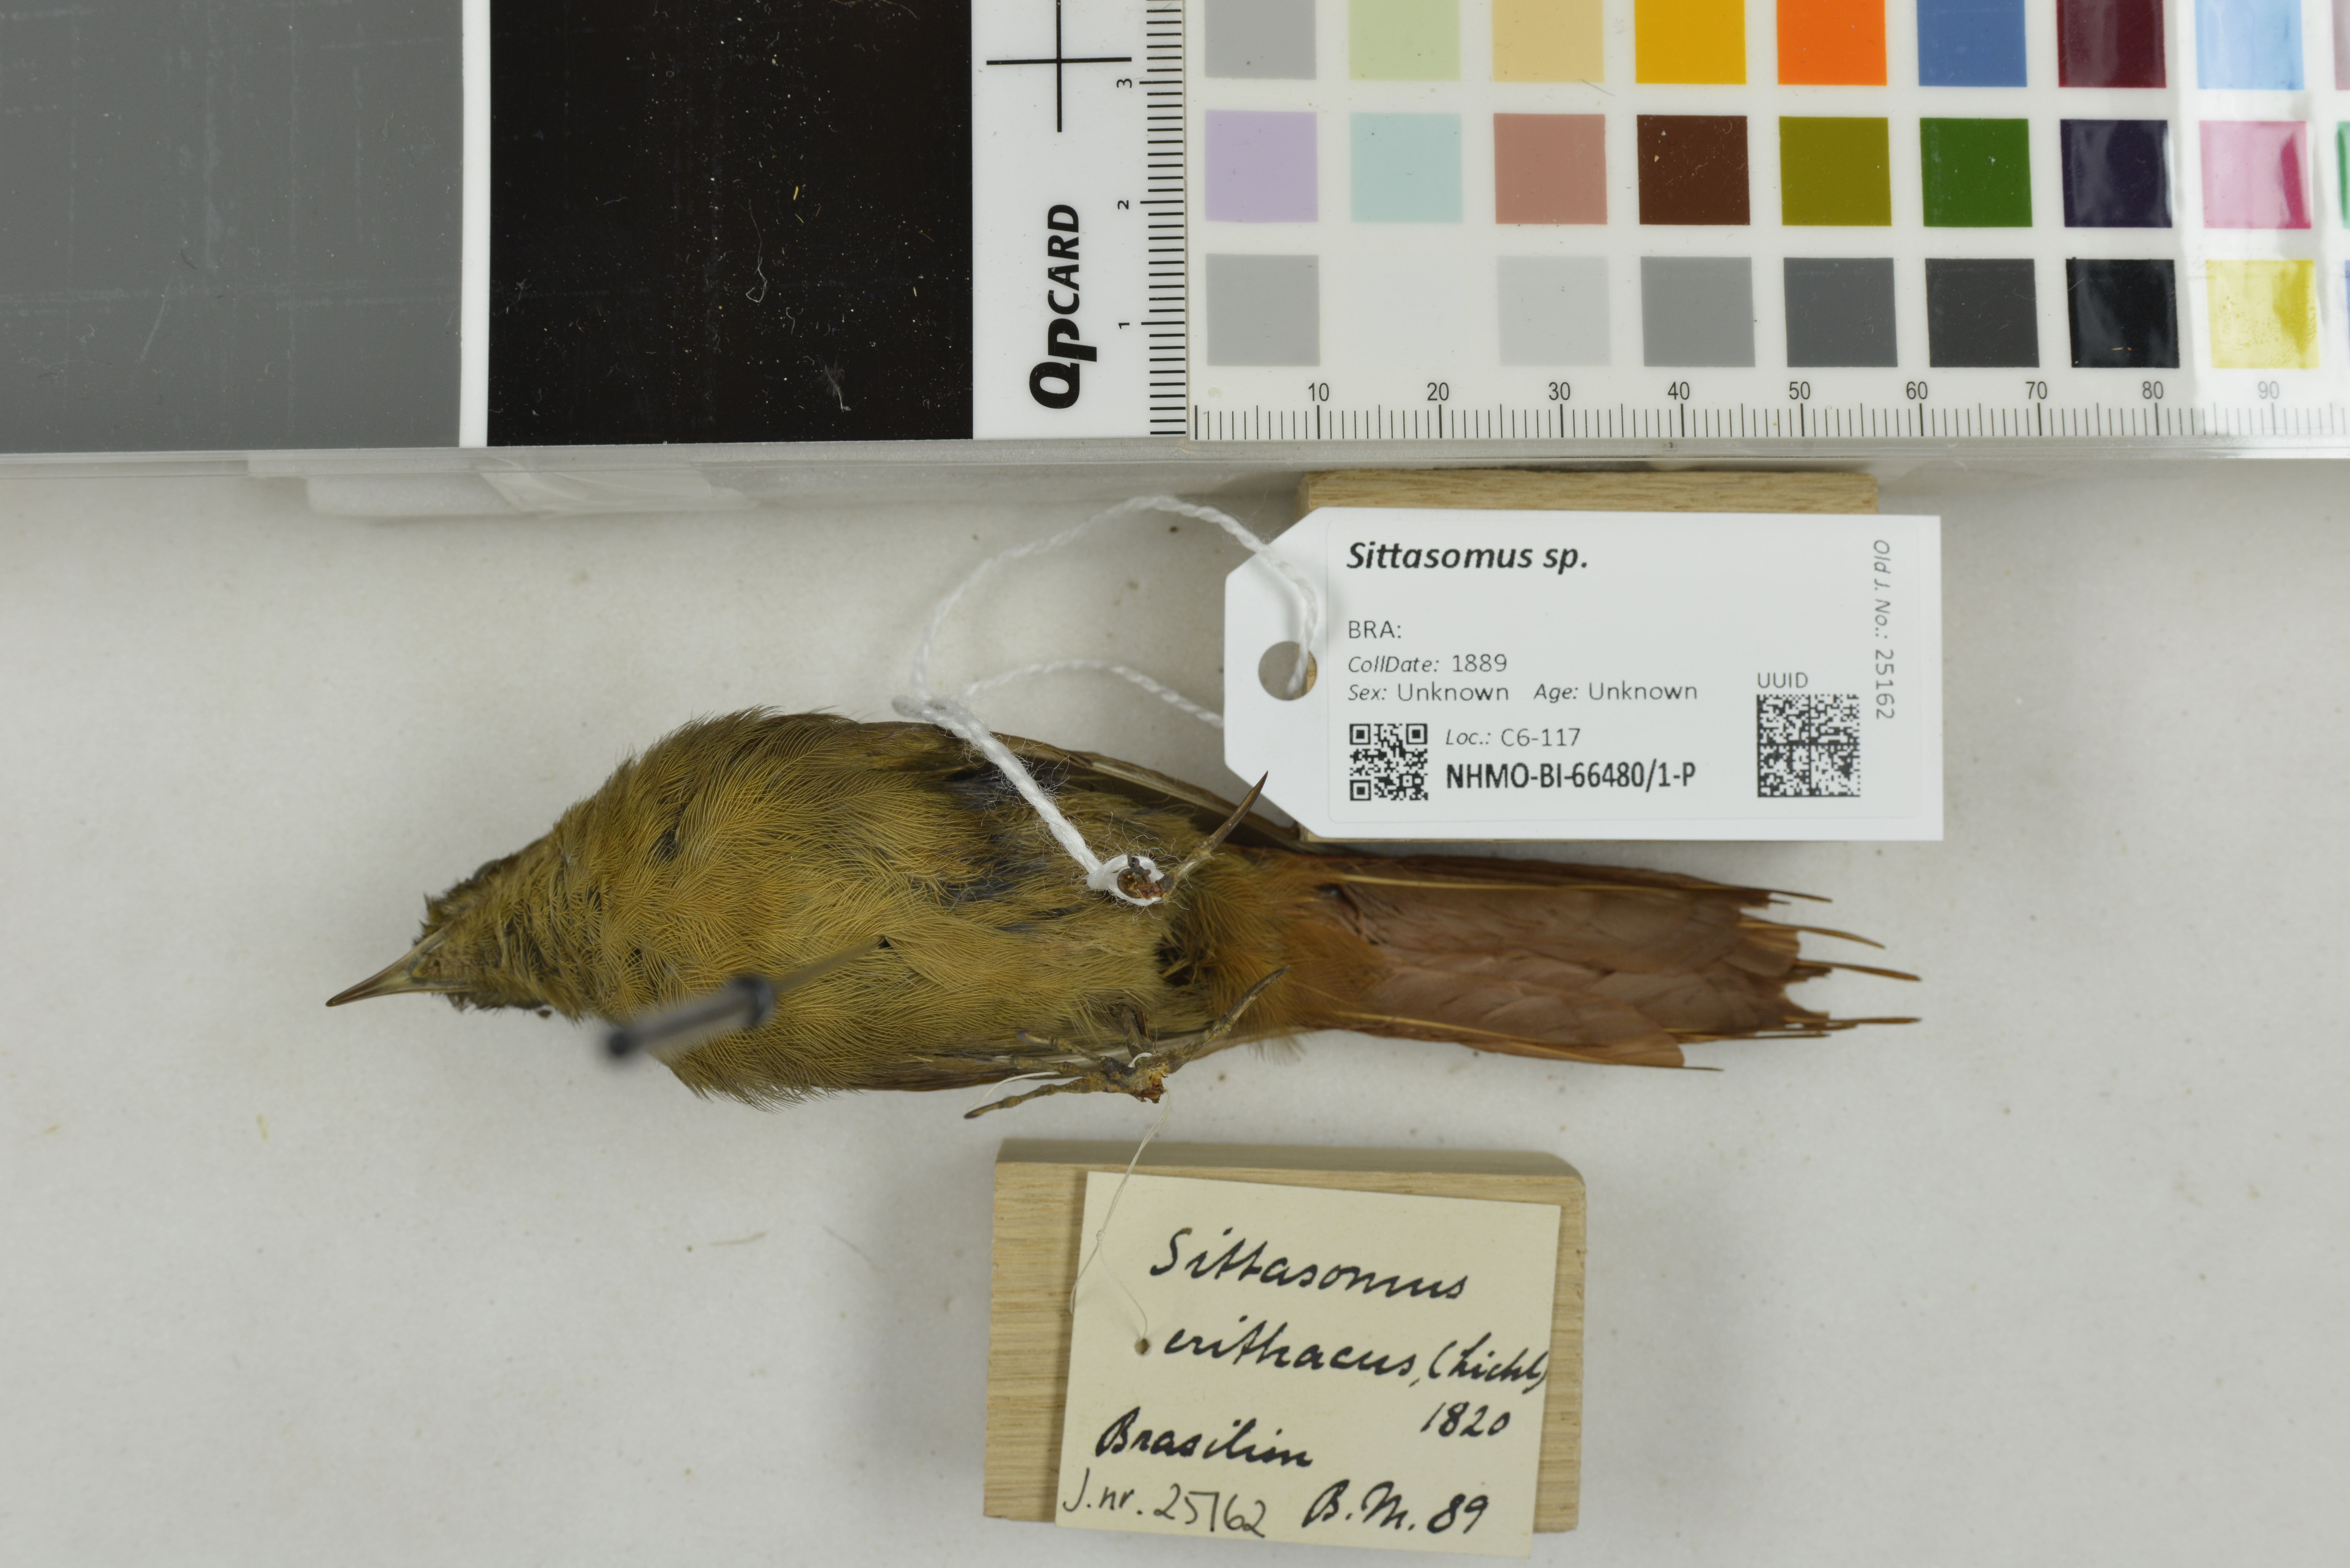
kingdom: Animalia
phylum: Chordata
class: Aves
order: Passeriformes
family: Furnariidae
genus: Sittasomus
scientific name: Sittasomus
